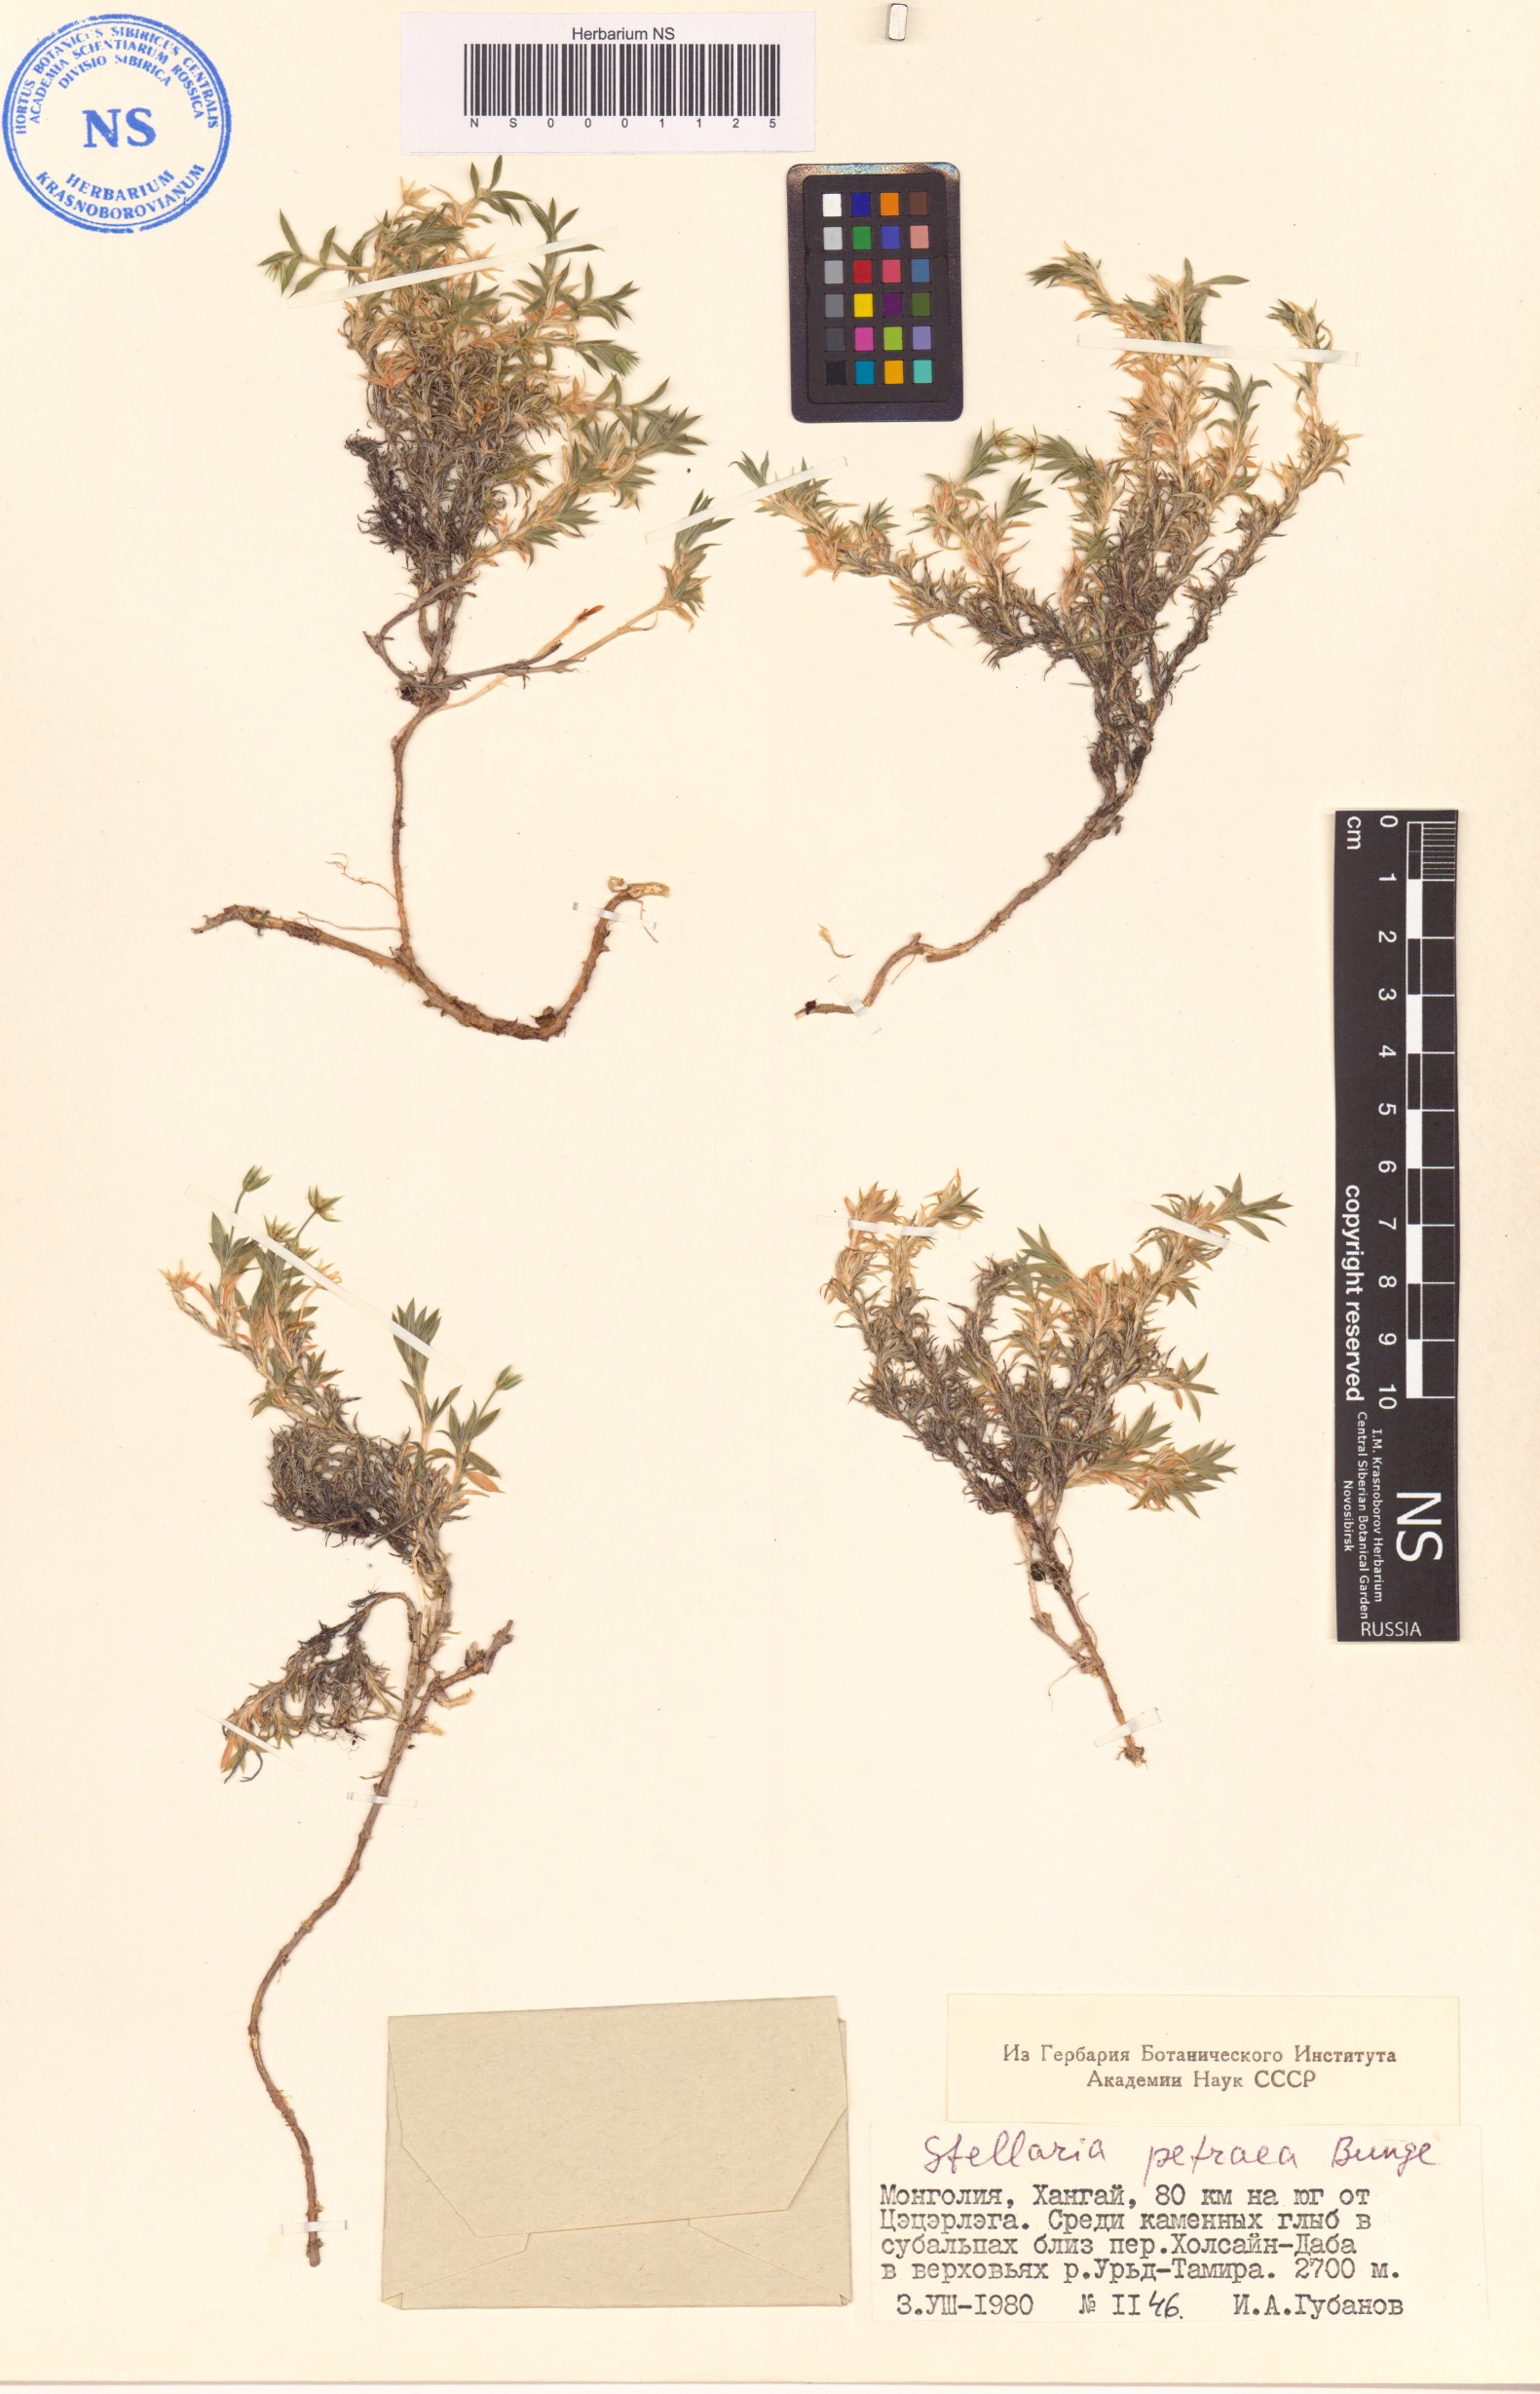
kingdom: Plantae
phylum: Tracheophyta
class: Magnoliopsida
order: Caryophyllales
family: Caryophyllaceae
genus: Adenonema
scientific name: Adenonema petraeum
